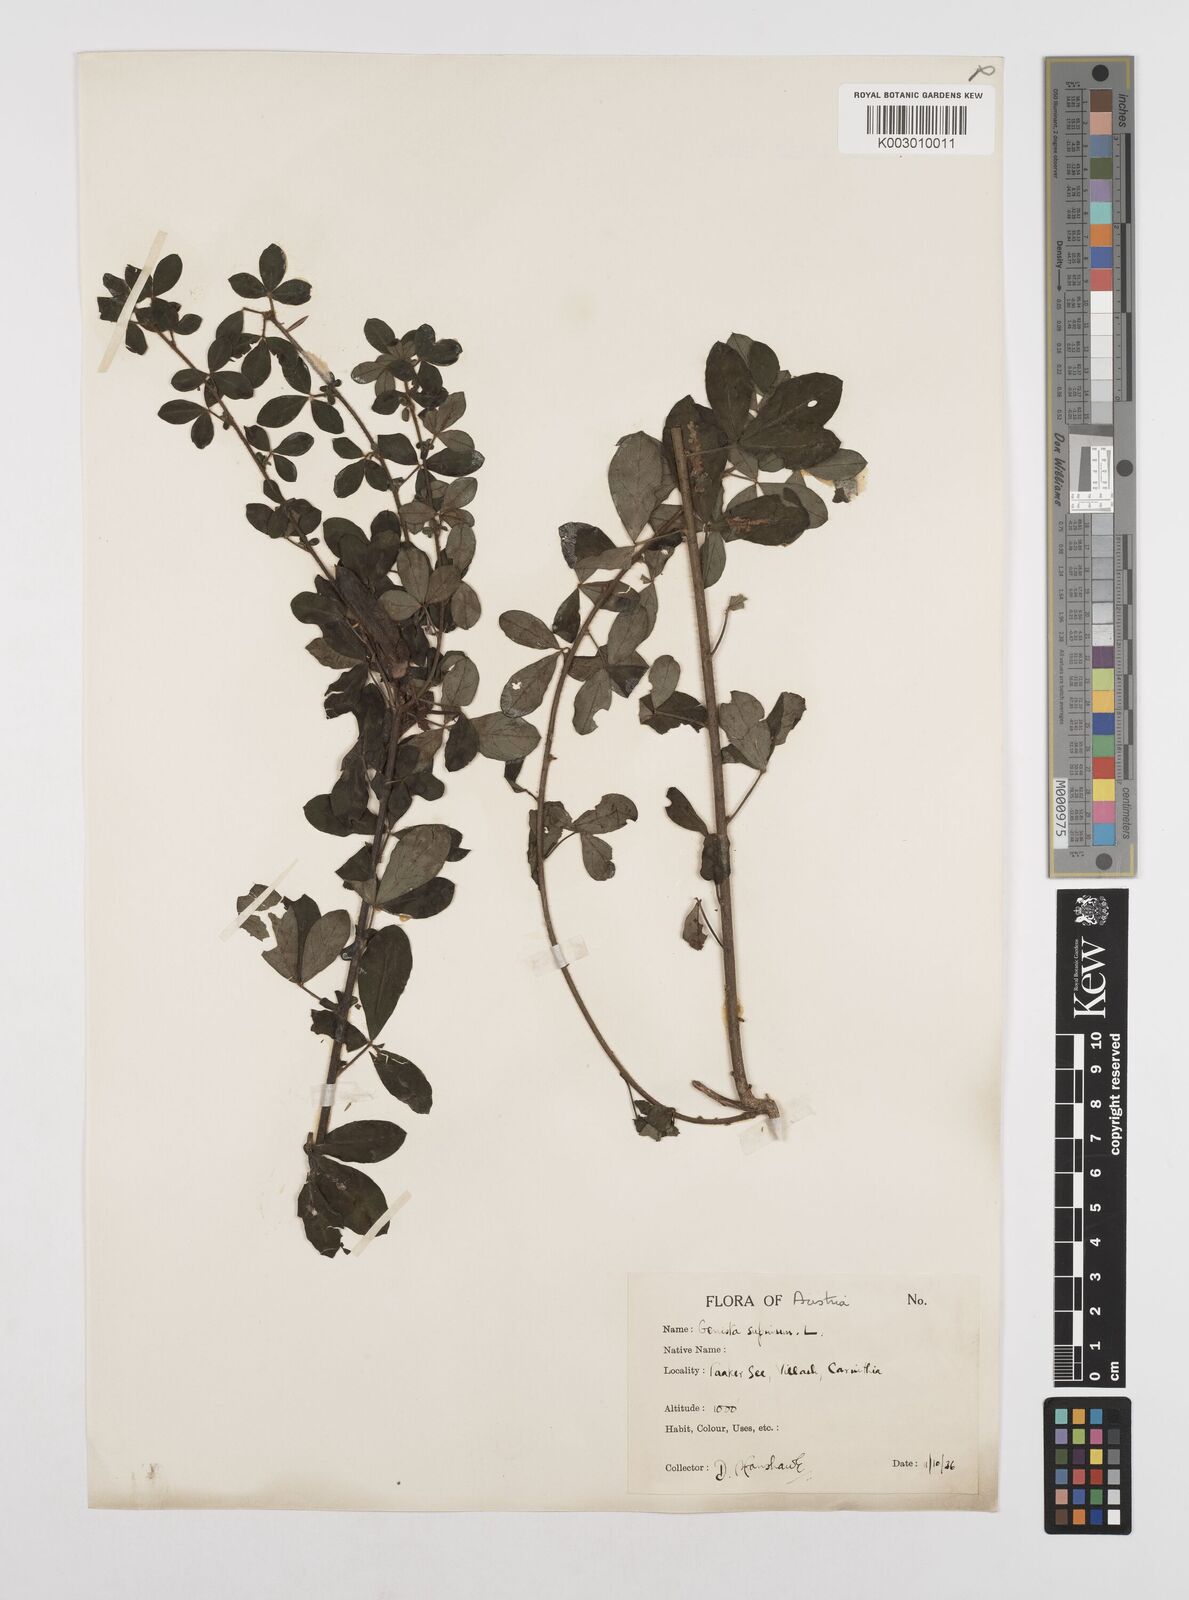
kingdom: Plantae
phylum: Tracheophyta
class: Magnoliopsida
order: Fabales
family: Fabaceae
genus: Chamaecytisus
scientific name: Chamaecytisus hirsutus
